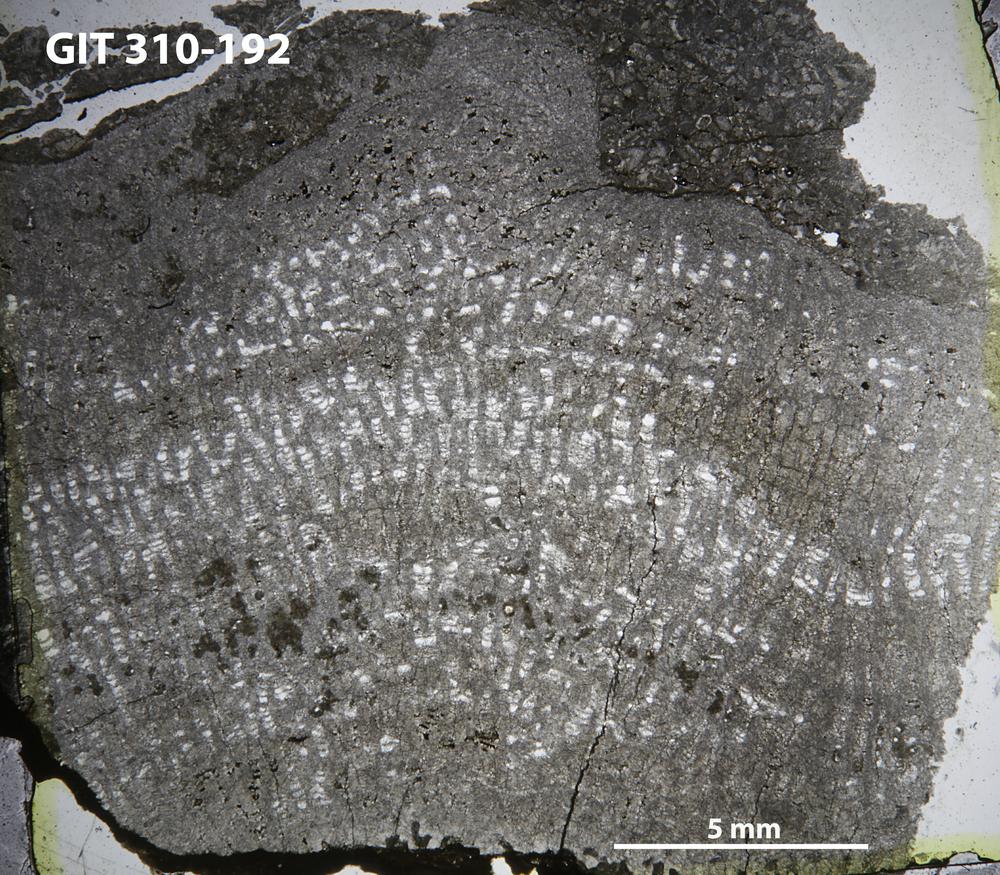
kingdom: Animalia
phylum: Porifera
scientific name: Porifera
